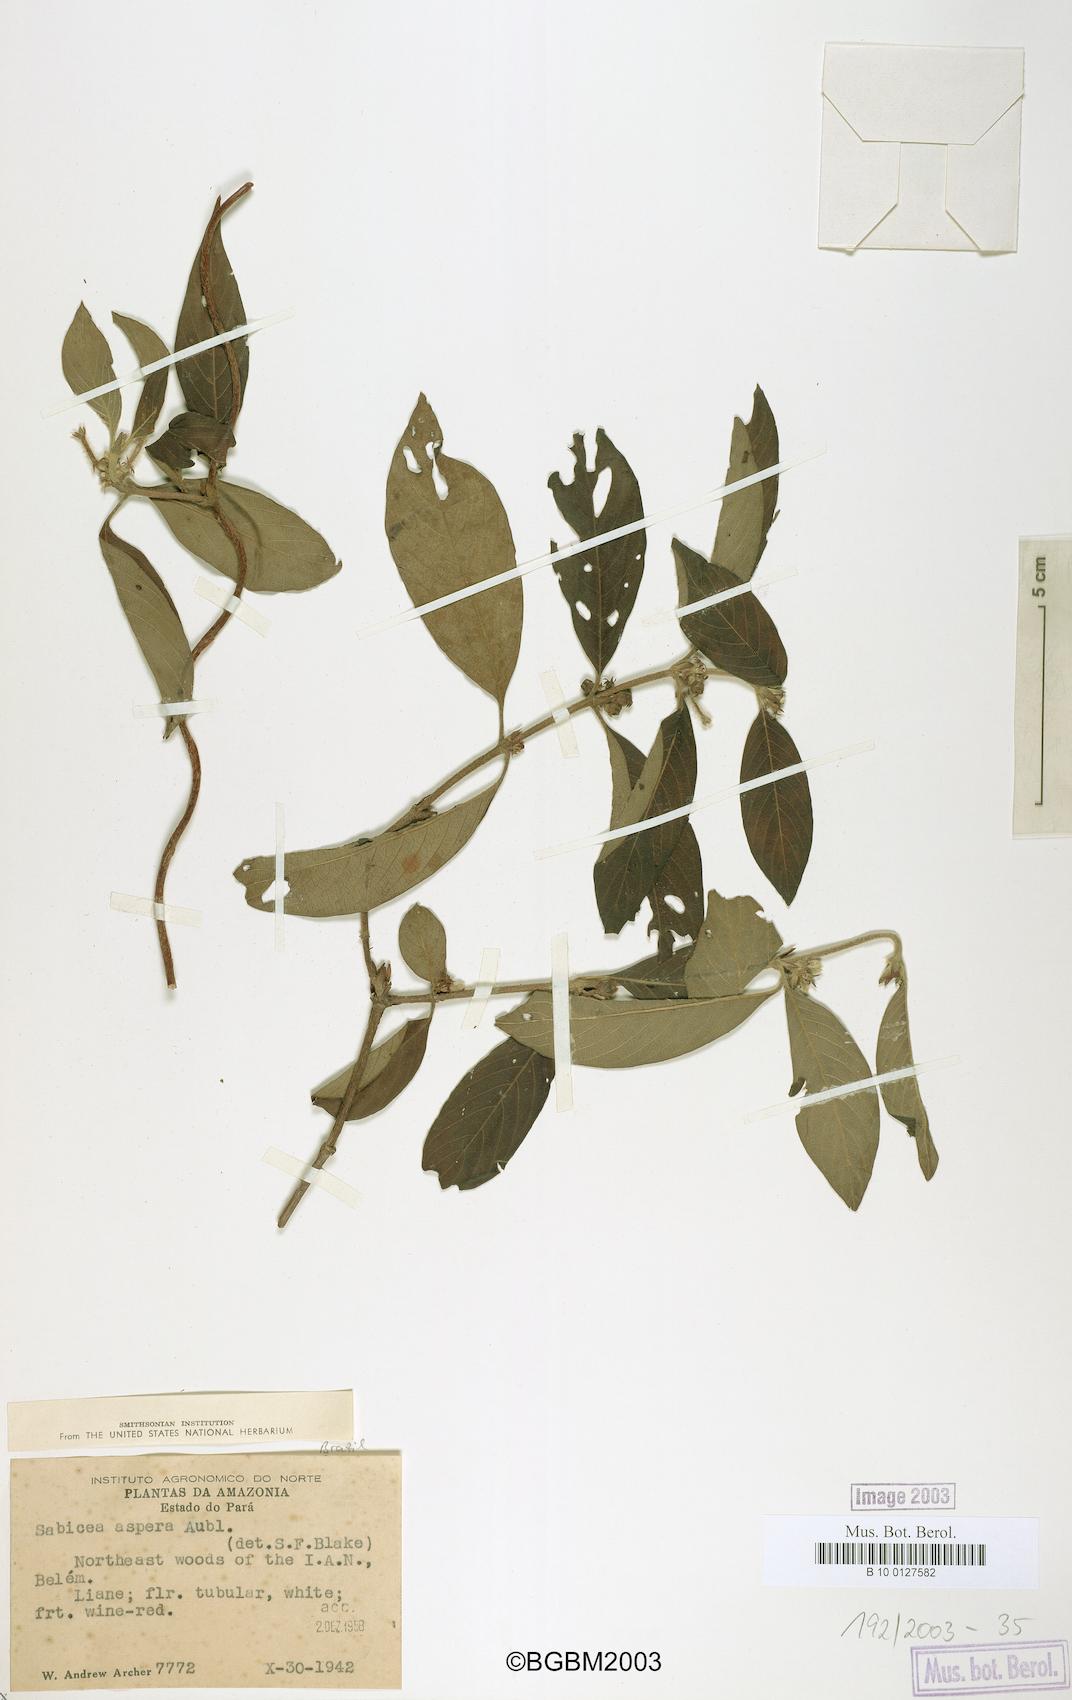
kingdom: Plantae
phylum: Tracheophyta
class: Magnoliopsida
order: Gentianales
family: Rubiaceae
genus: Sabicea
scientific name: Sabicea aspera
